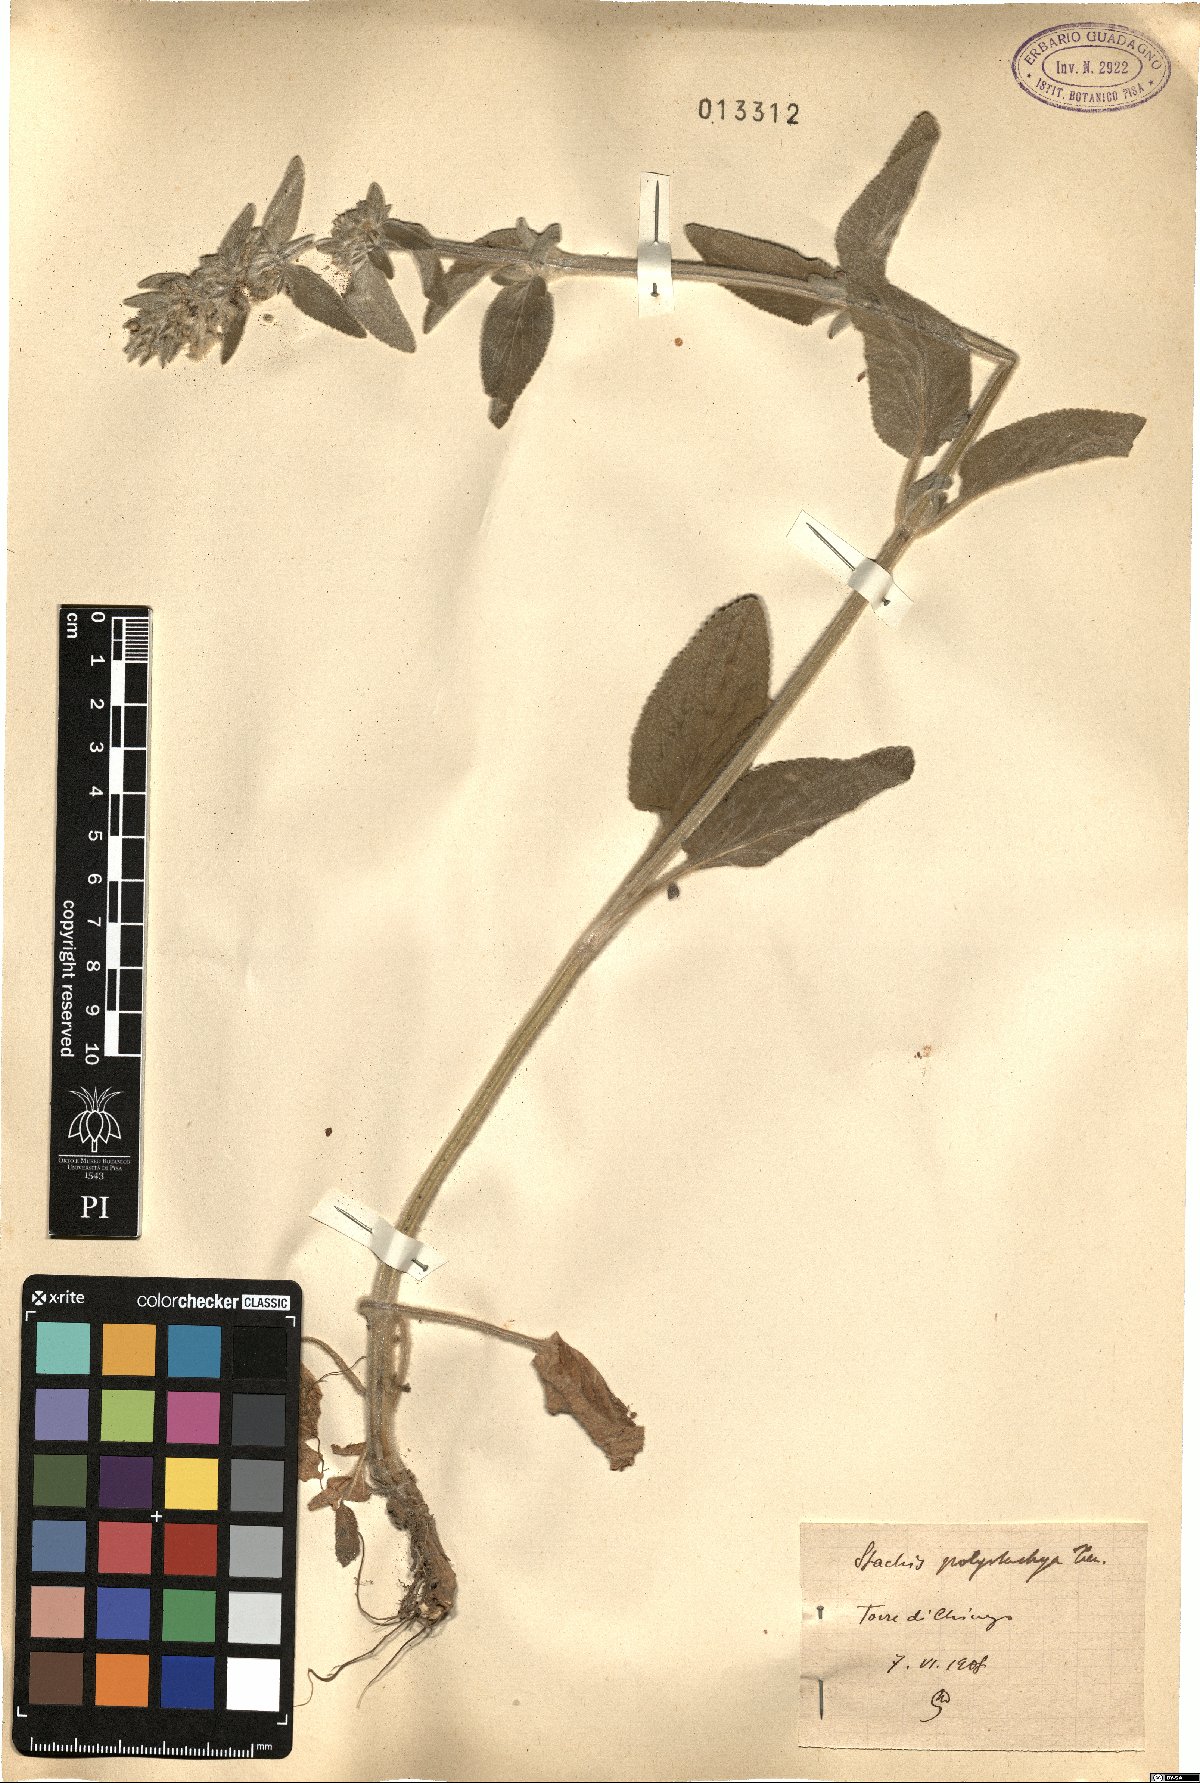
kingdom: Plantae
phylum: Tracheophyta
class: Magnoliopsida
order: Lamiales
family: Lamiaceae
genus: Stachys
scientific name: Stachys germanica
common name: Downy woundwort
